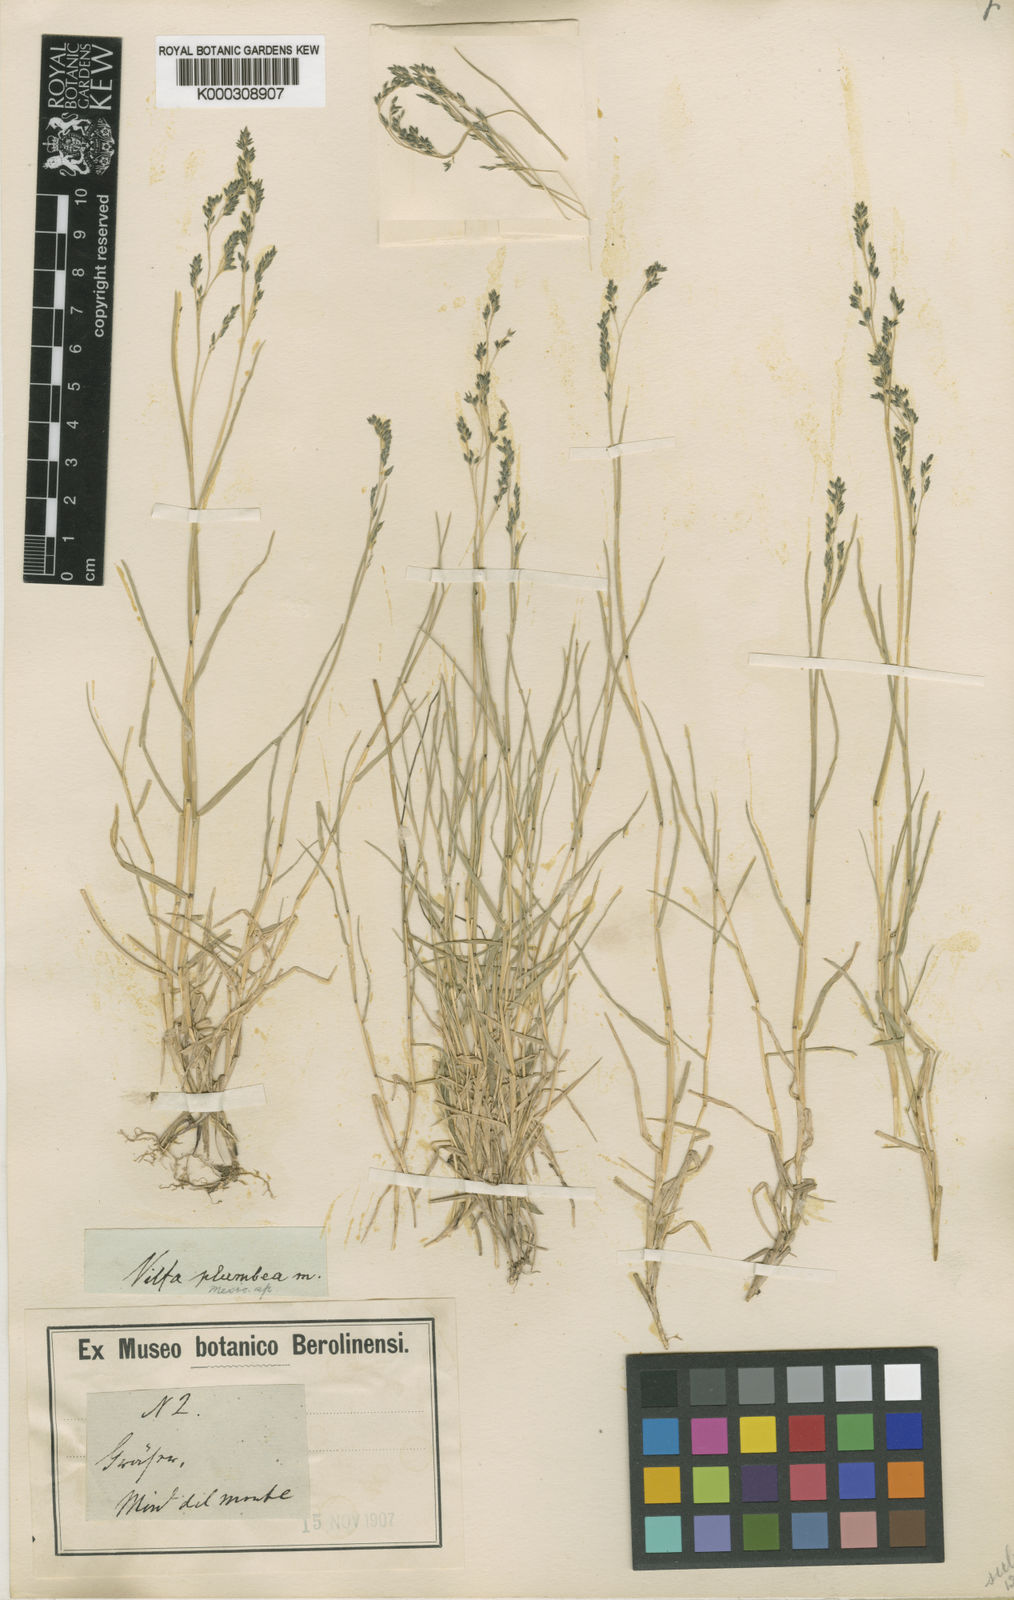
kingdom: Plantae
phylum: Tracheophyta
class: Liliopsida
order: Poales
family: Poaceae
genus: Muhlenbergia
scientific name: Muhlenbergia plumbea
